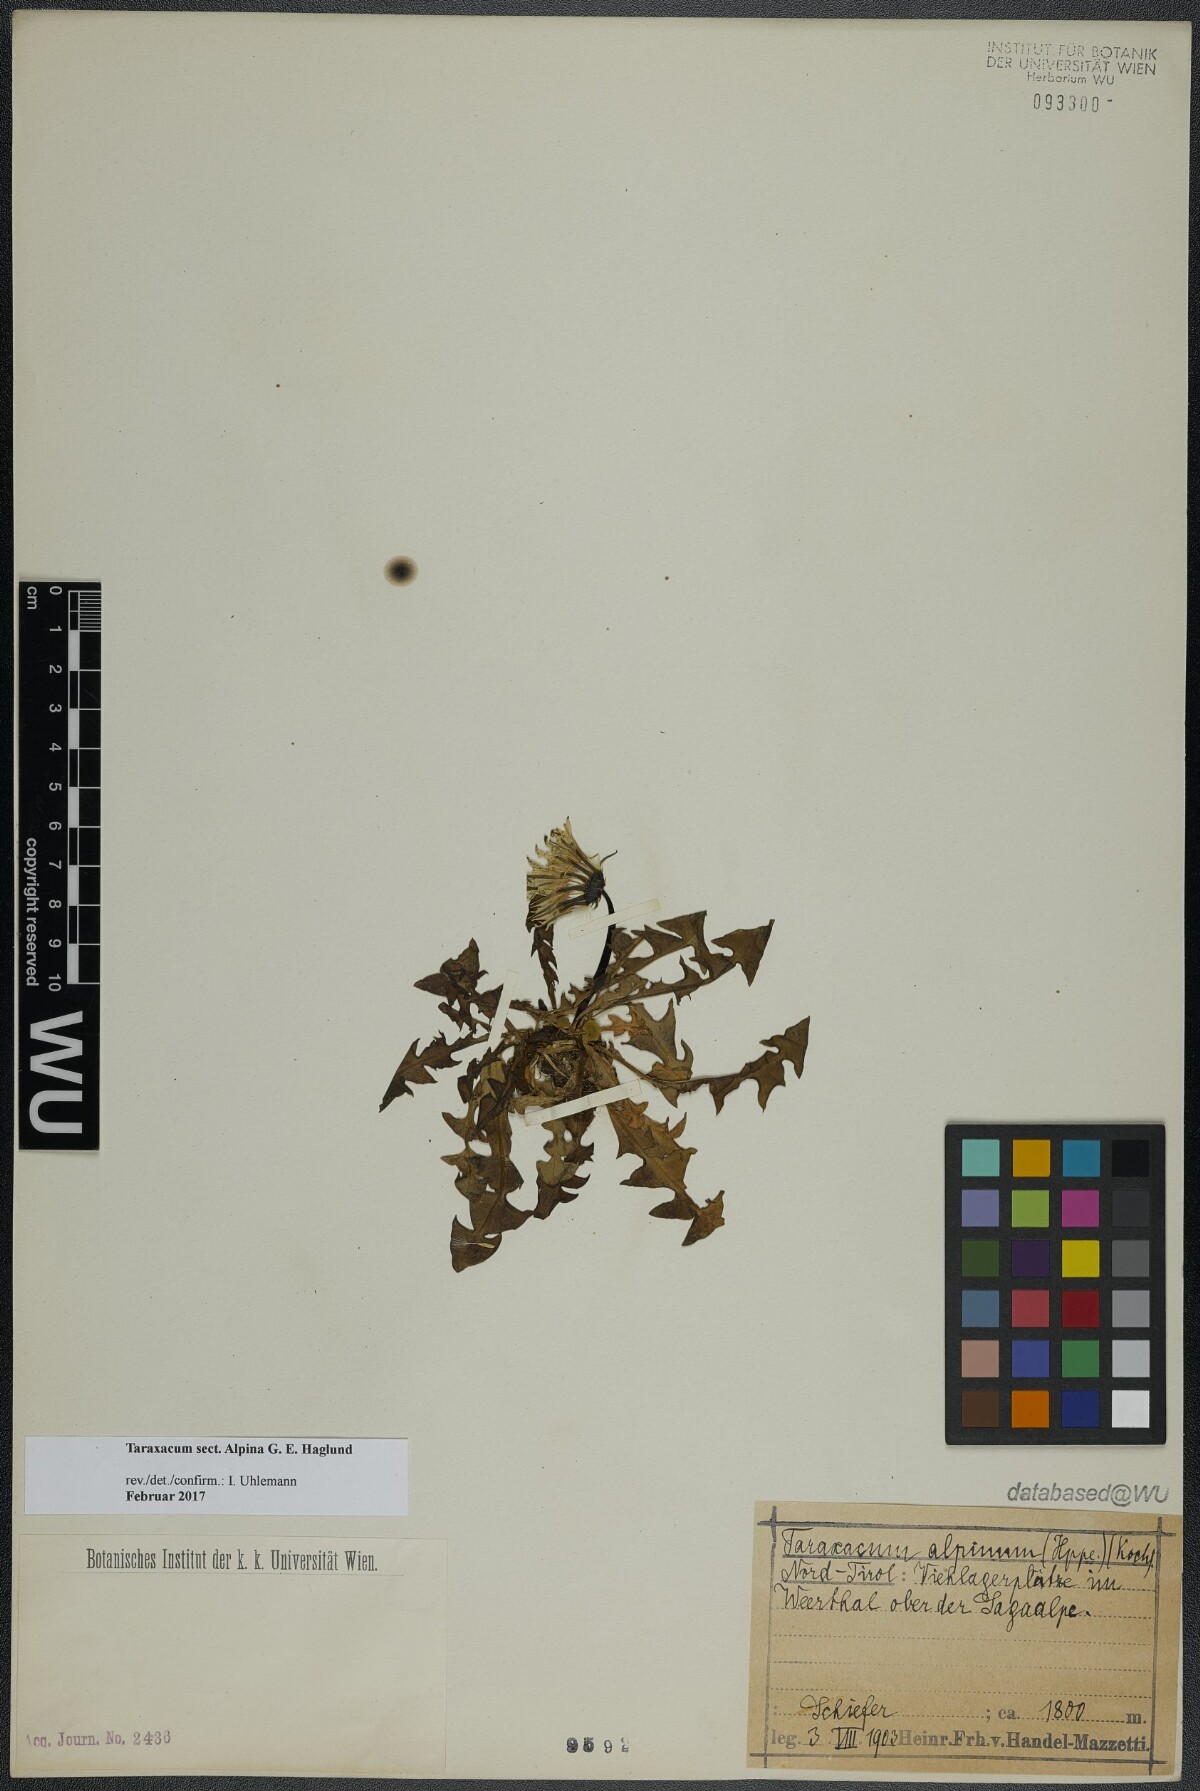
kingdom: Plantae
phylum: Tracheophyta
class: Magnoliopsida
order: Asterales
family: Asteraceae
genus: Taraxacum
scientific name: Taraxacum
